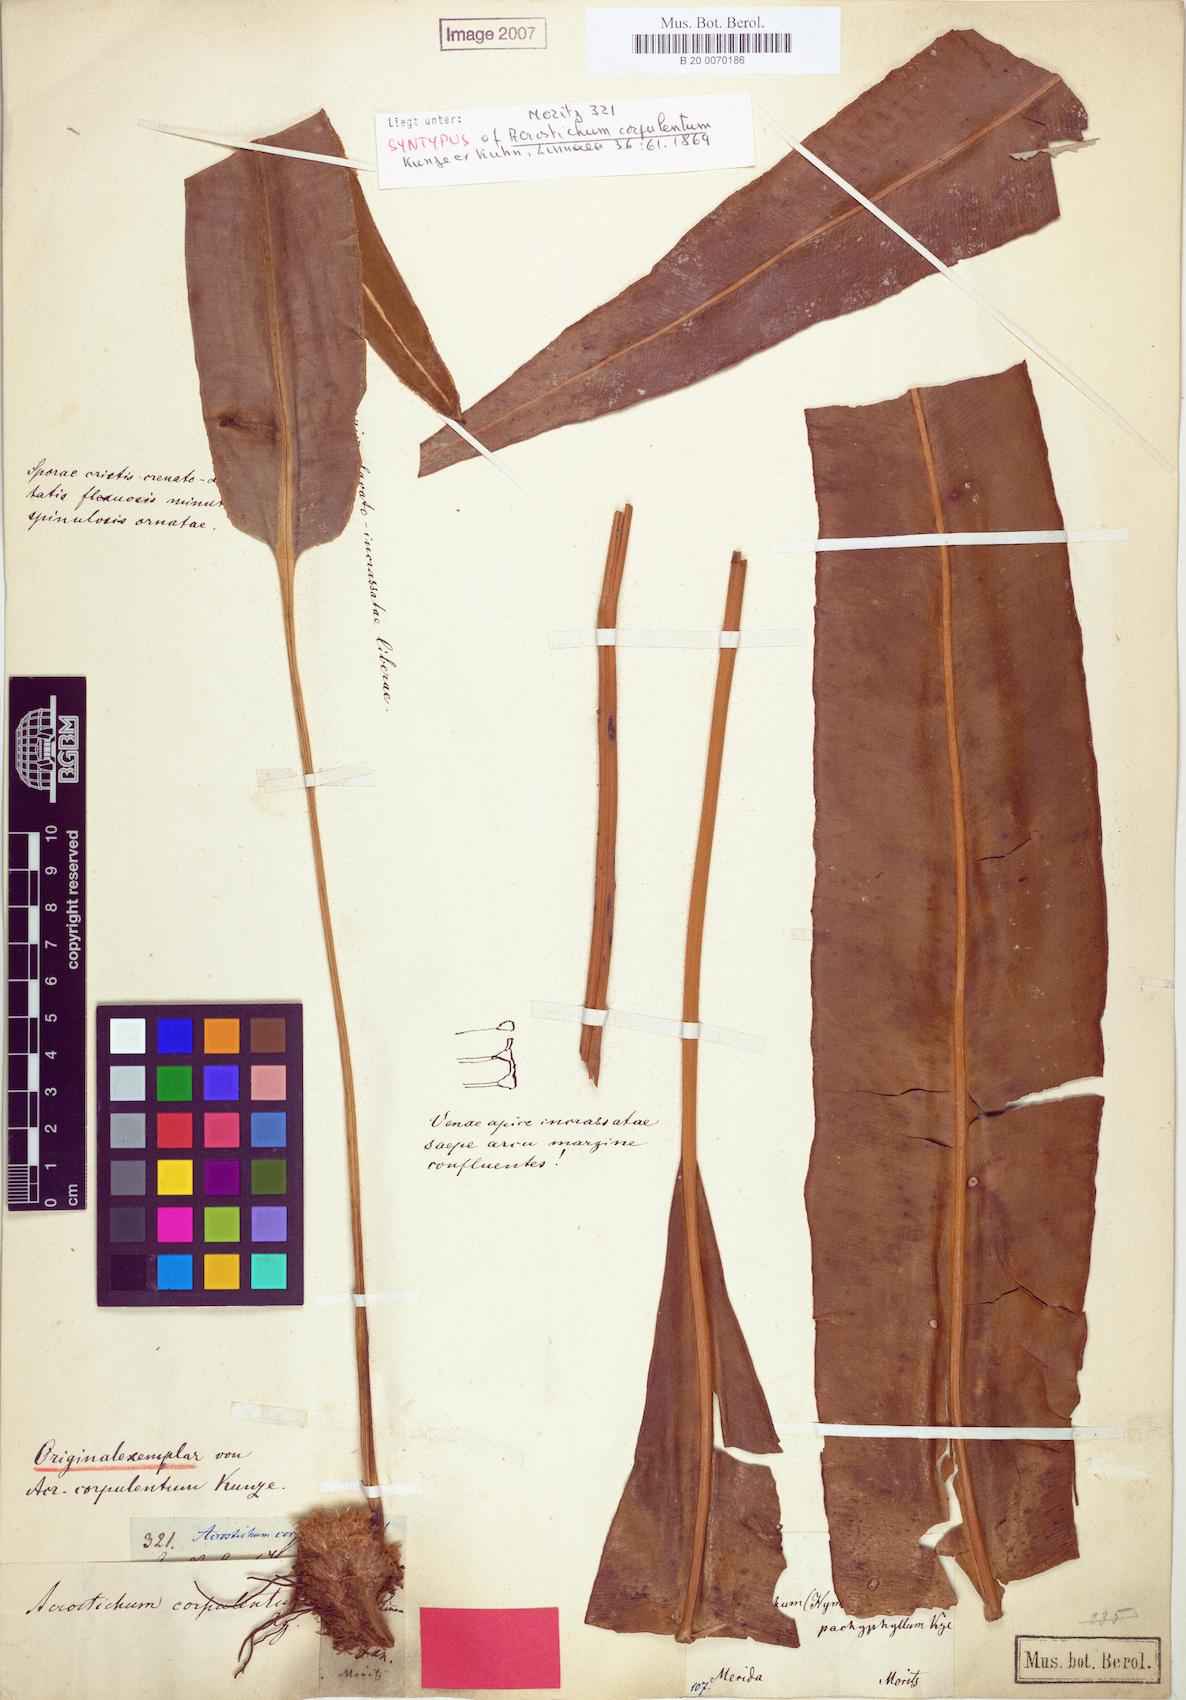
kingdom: Plantae
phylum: Tracheophyta
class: Polypodiopsida
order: Polypodiales
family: Dryopteridaceae
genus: Elaphoglossum
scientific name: Elaphoglossum
